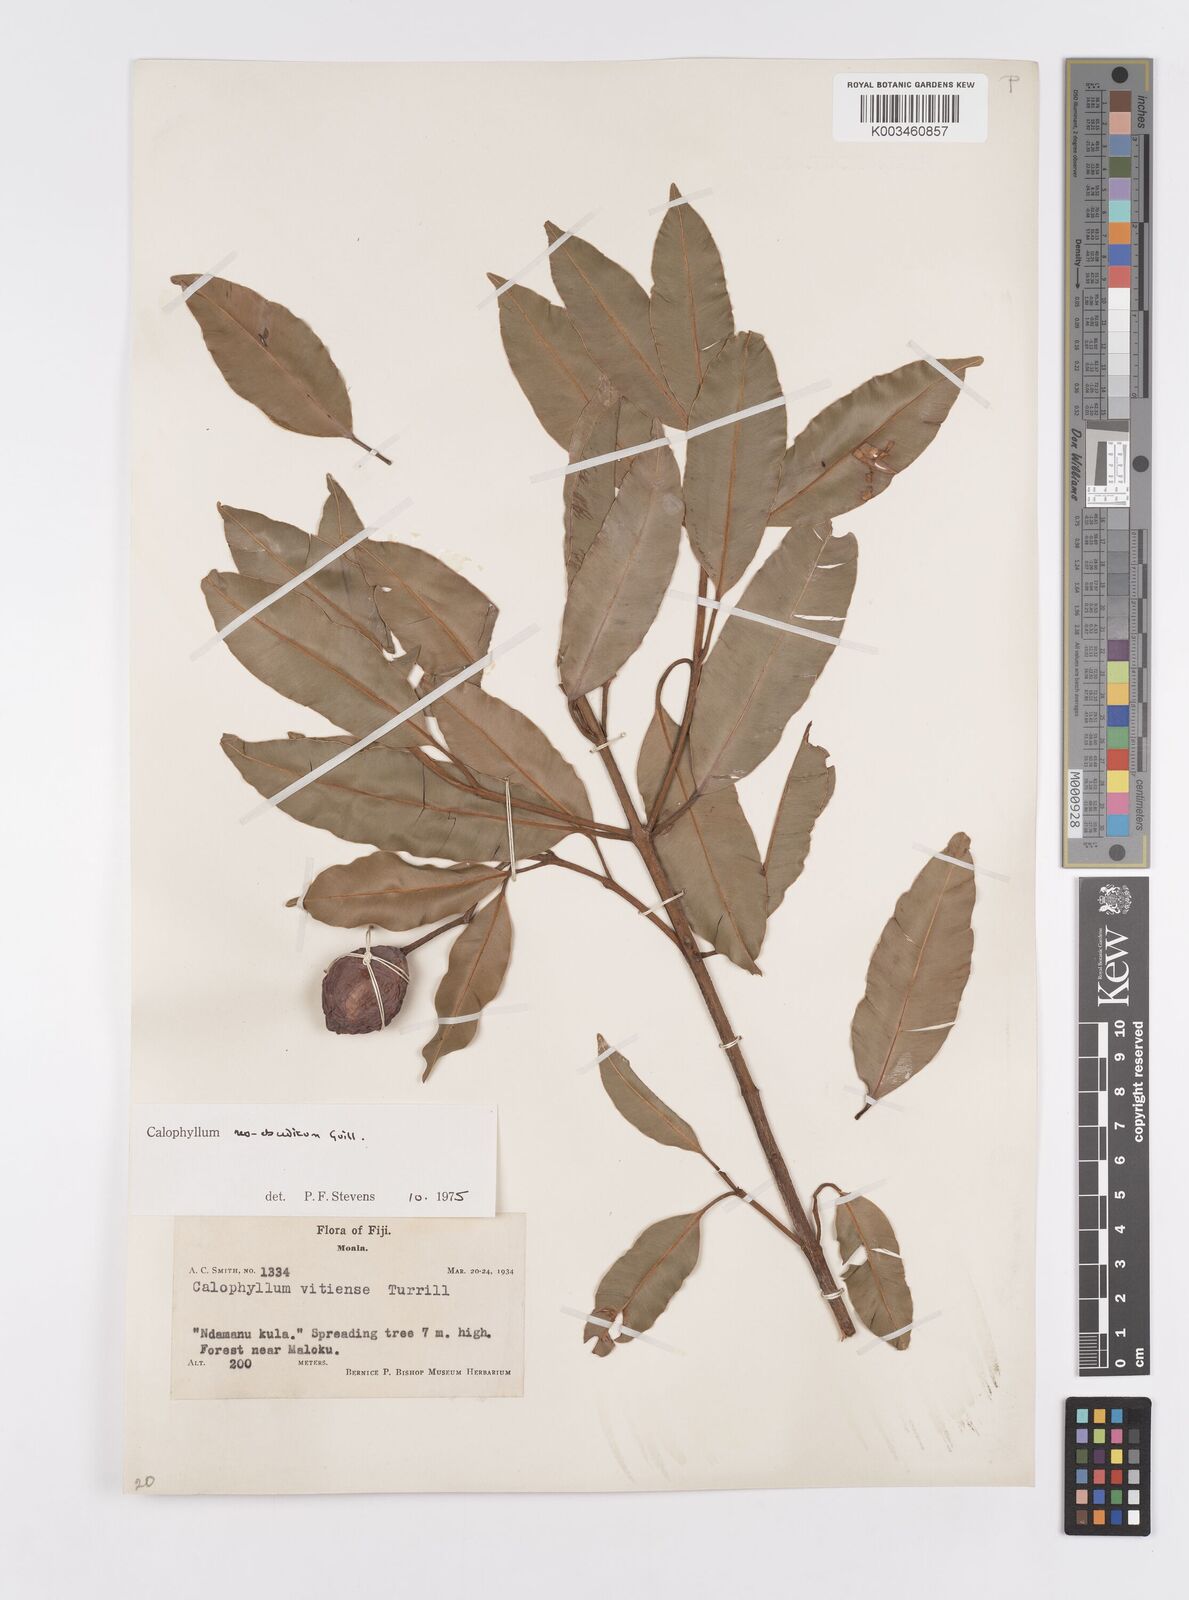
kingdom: Plantae
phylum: Tracheophyta
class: Magnoliopsida
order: Malpighiales
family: Calophyllaceae
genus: Calophyllum
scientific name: Calophyllum neoebudicum
